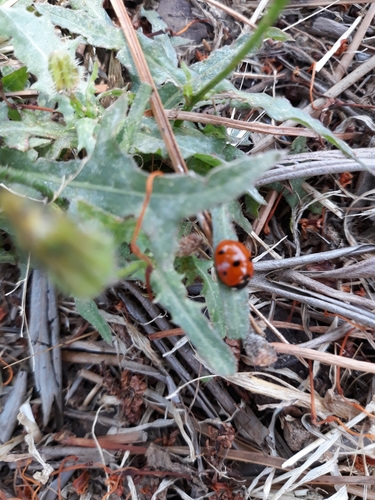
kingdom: Animalia
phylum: Arthropoda
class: Insecta
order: Coleoptera
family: Coccinellidae
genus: Coccinella
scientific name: Coccinella septempunctata
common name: Sevenspotted lady beetle
